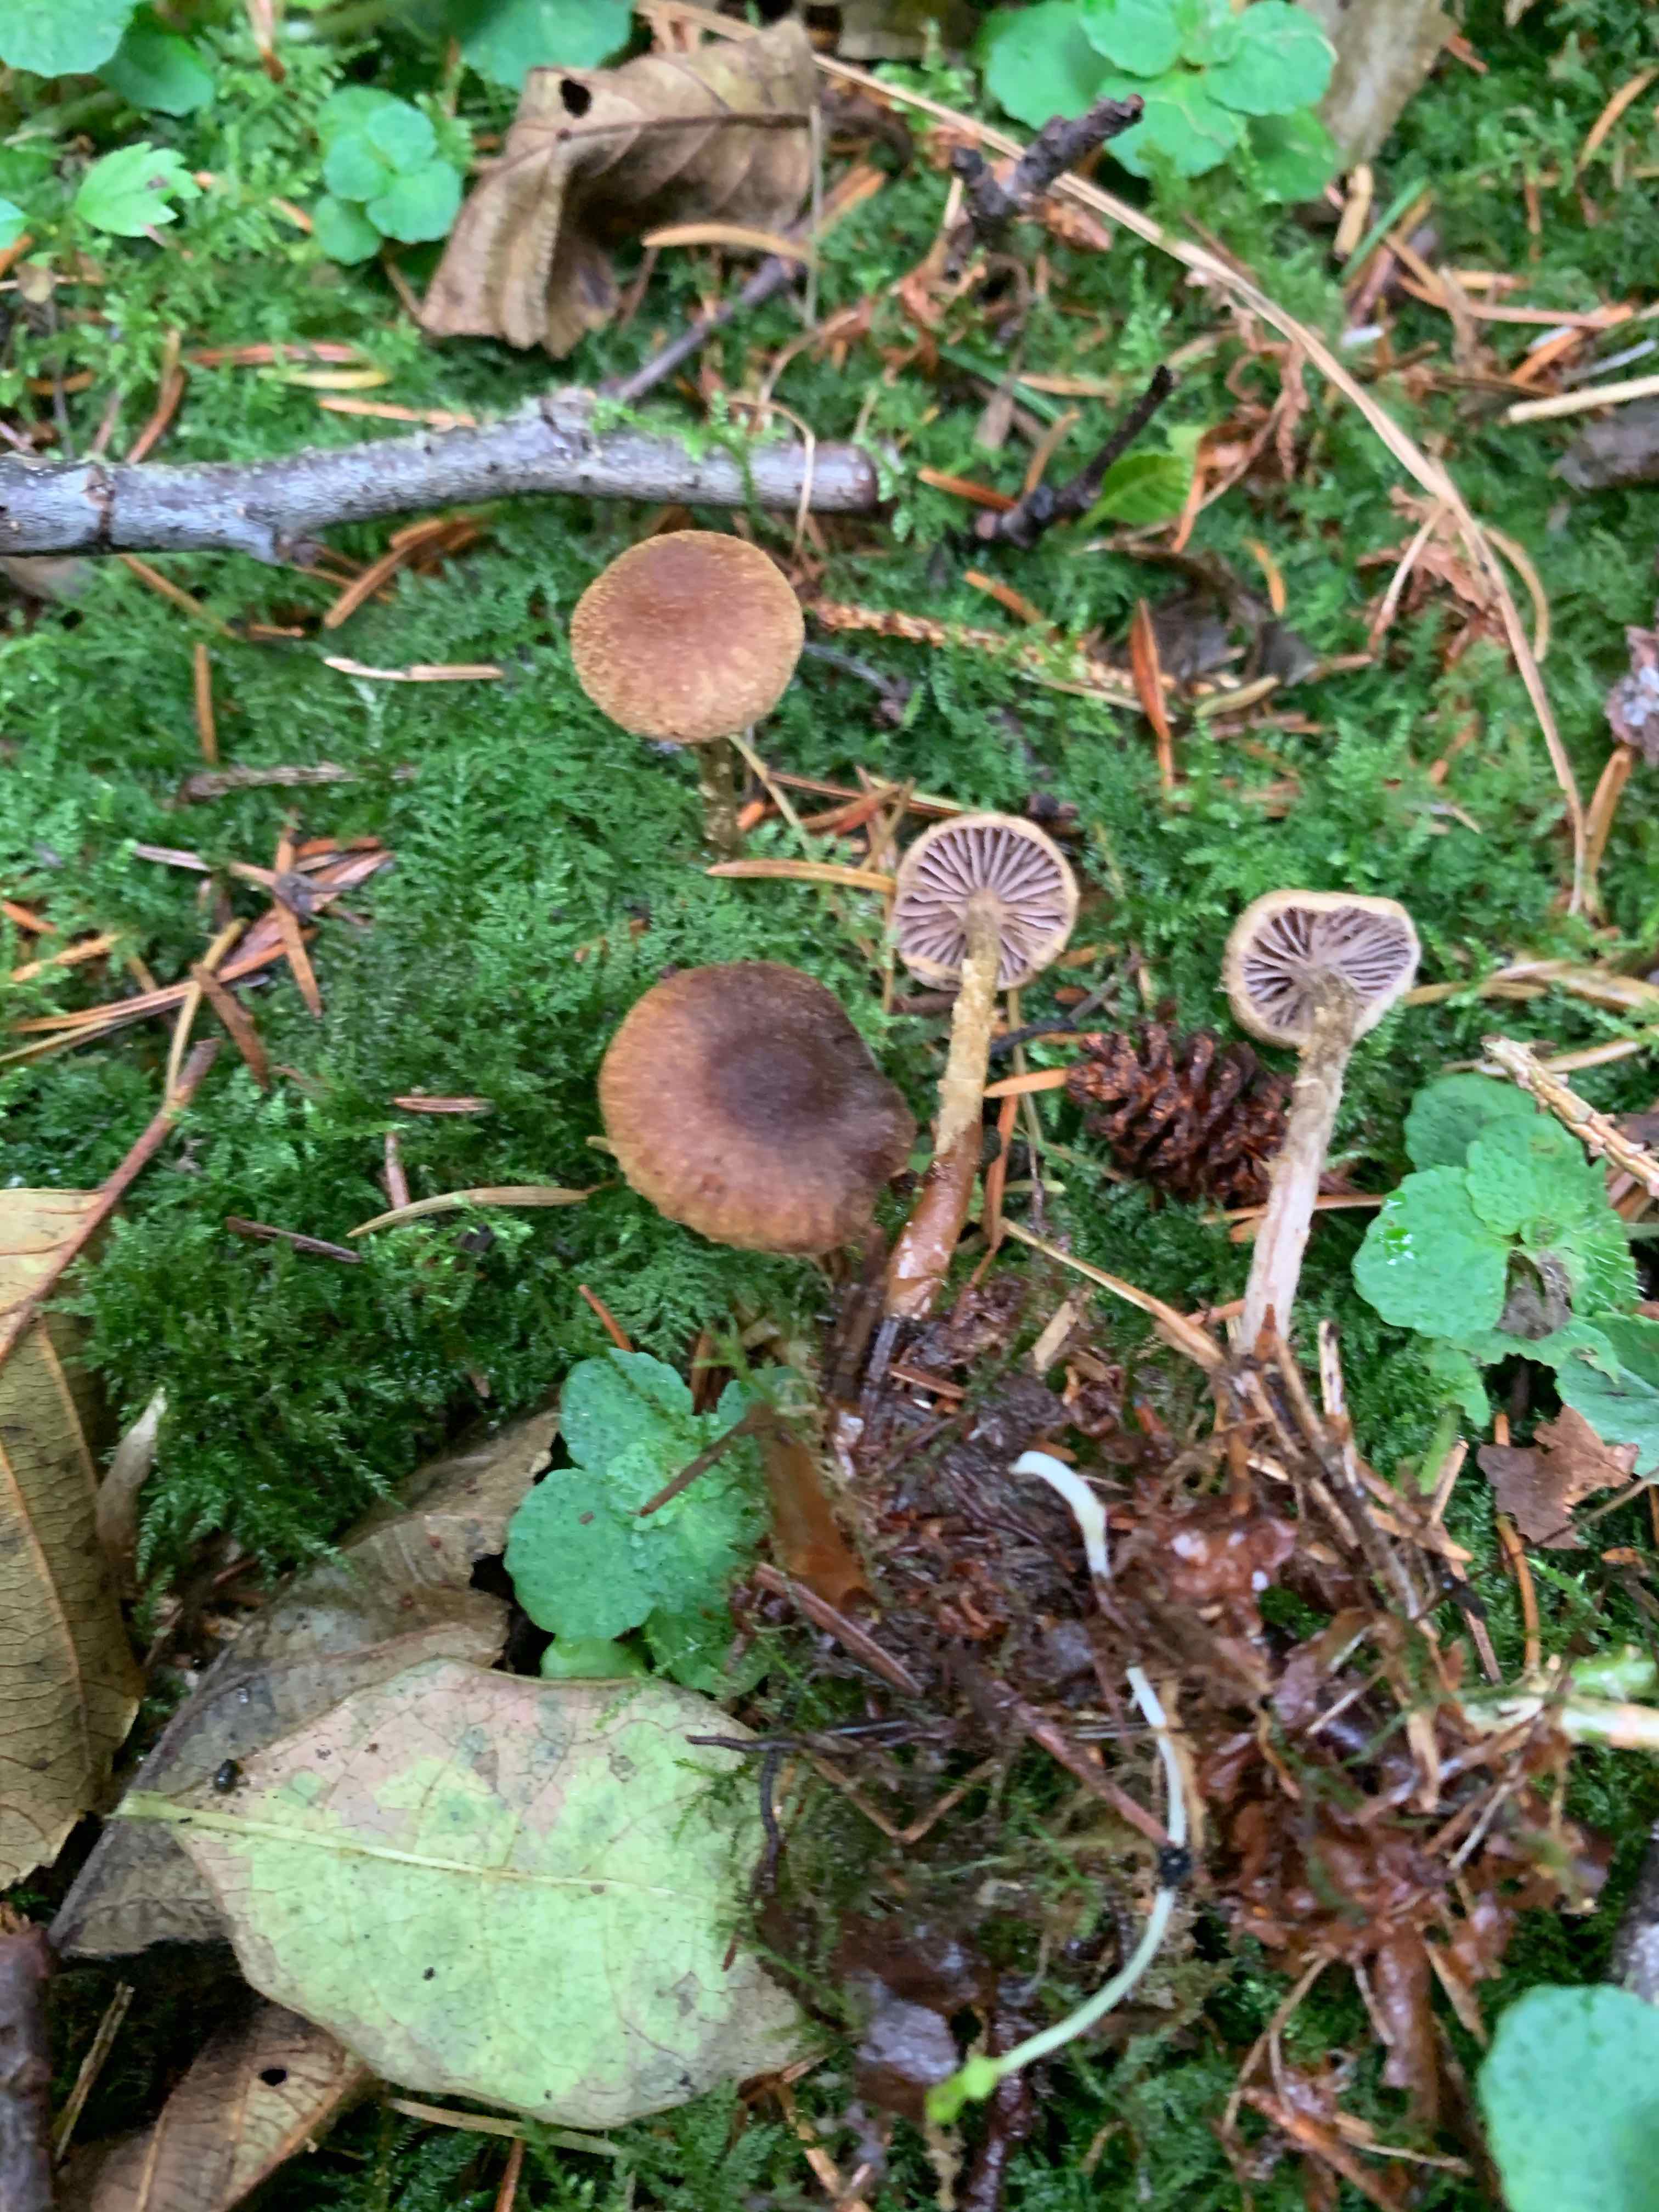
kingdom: Fungi
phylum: Basidiomycota
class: Agaricomycetes
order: Agaricales
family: Cortinariaceae
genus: Cortinarius
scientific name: Cortinarius helvelloides
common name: fjernbladet slørhat
